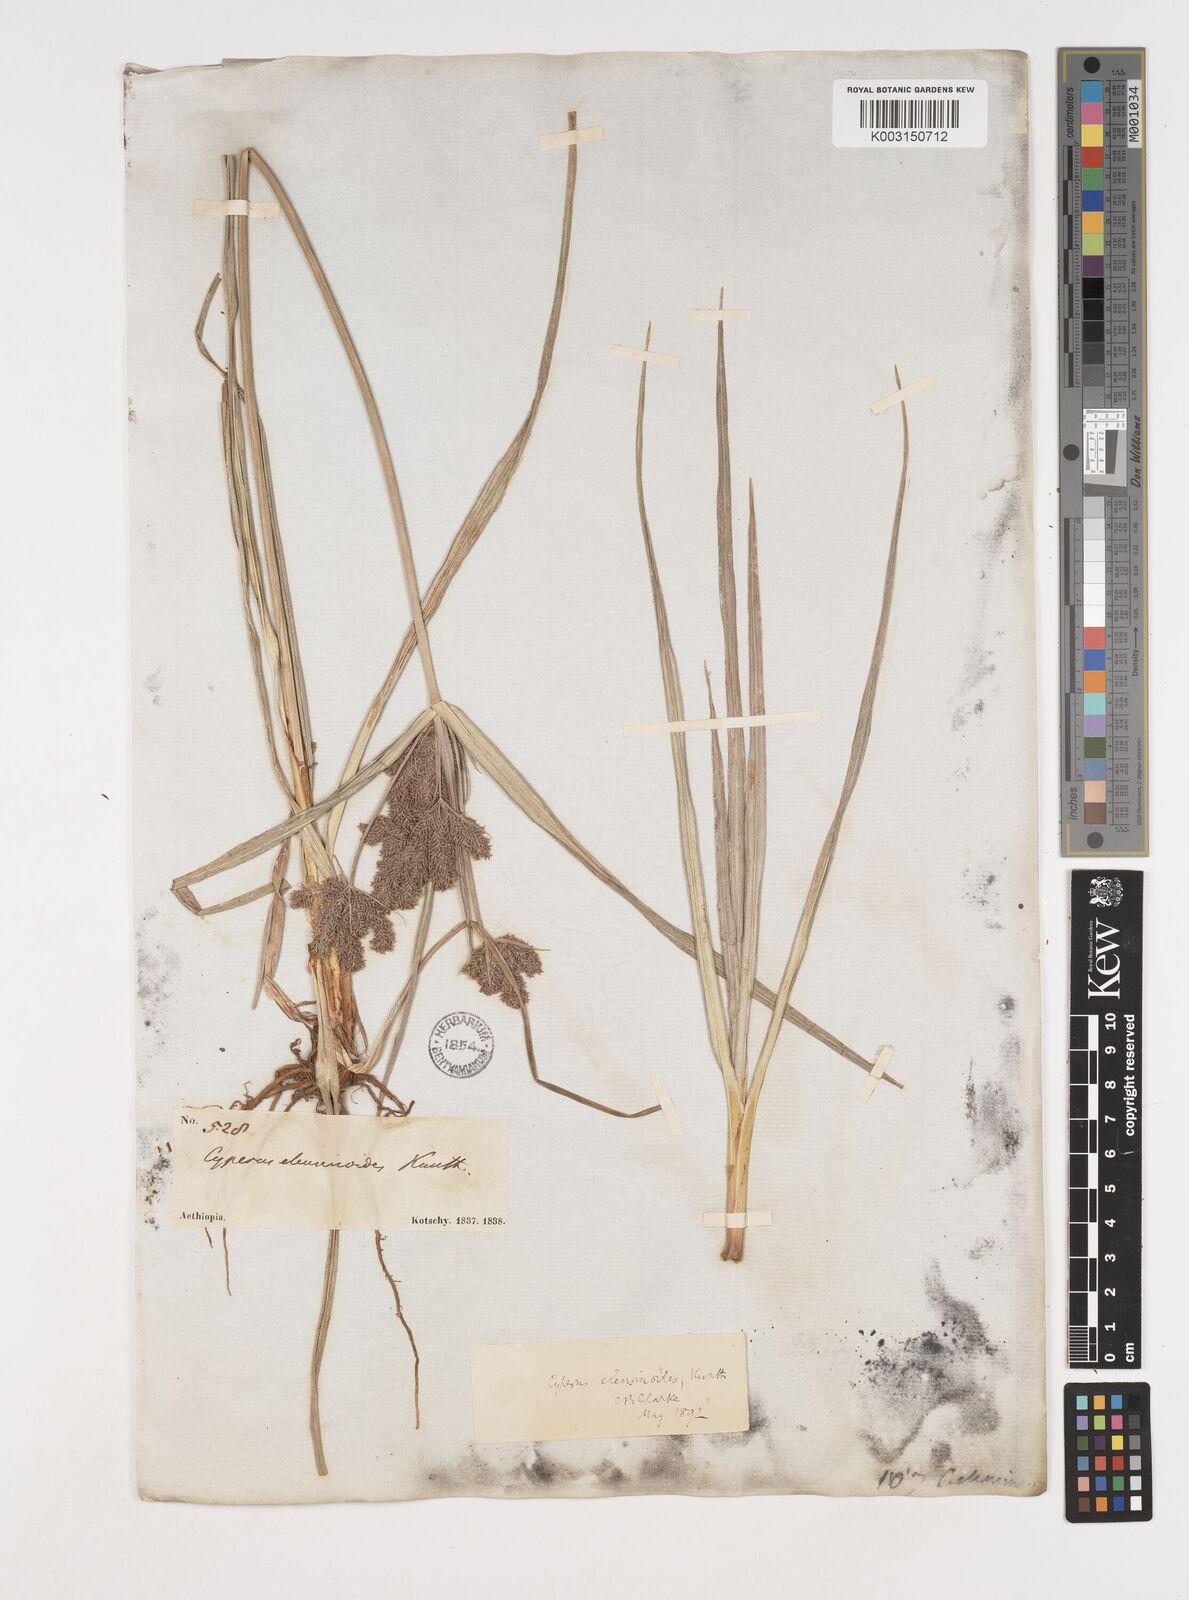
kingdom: Plantae
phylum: Tracheophyta
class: Liliopsida
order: Poales
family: Cyperaceae
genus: Cyperus
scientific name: Cyperus nutans
